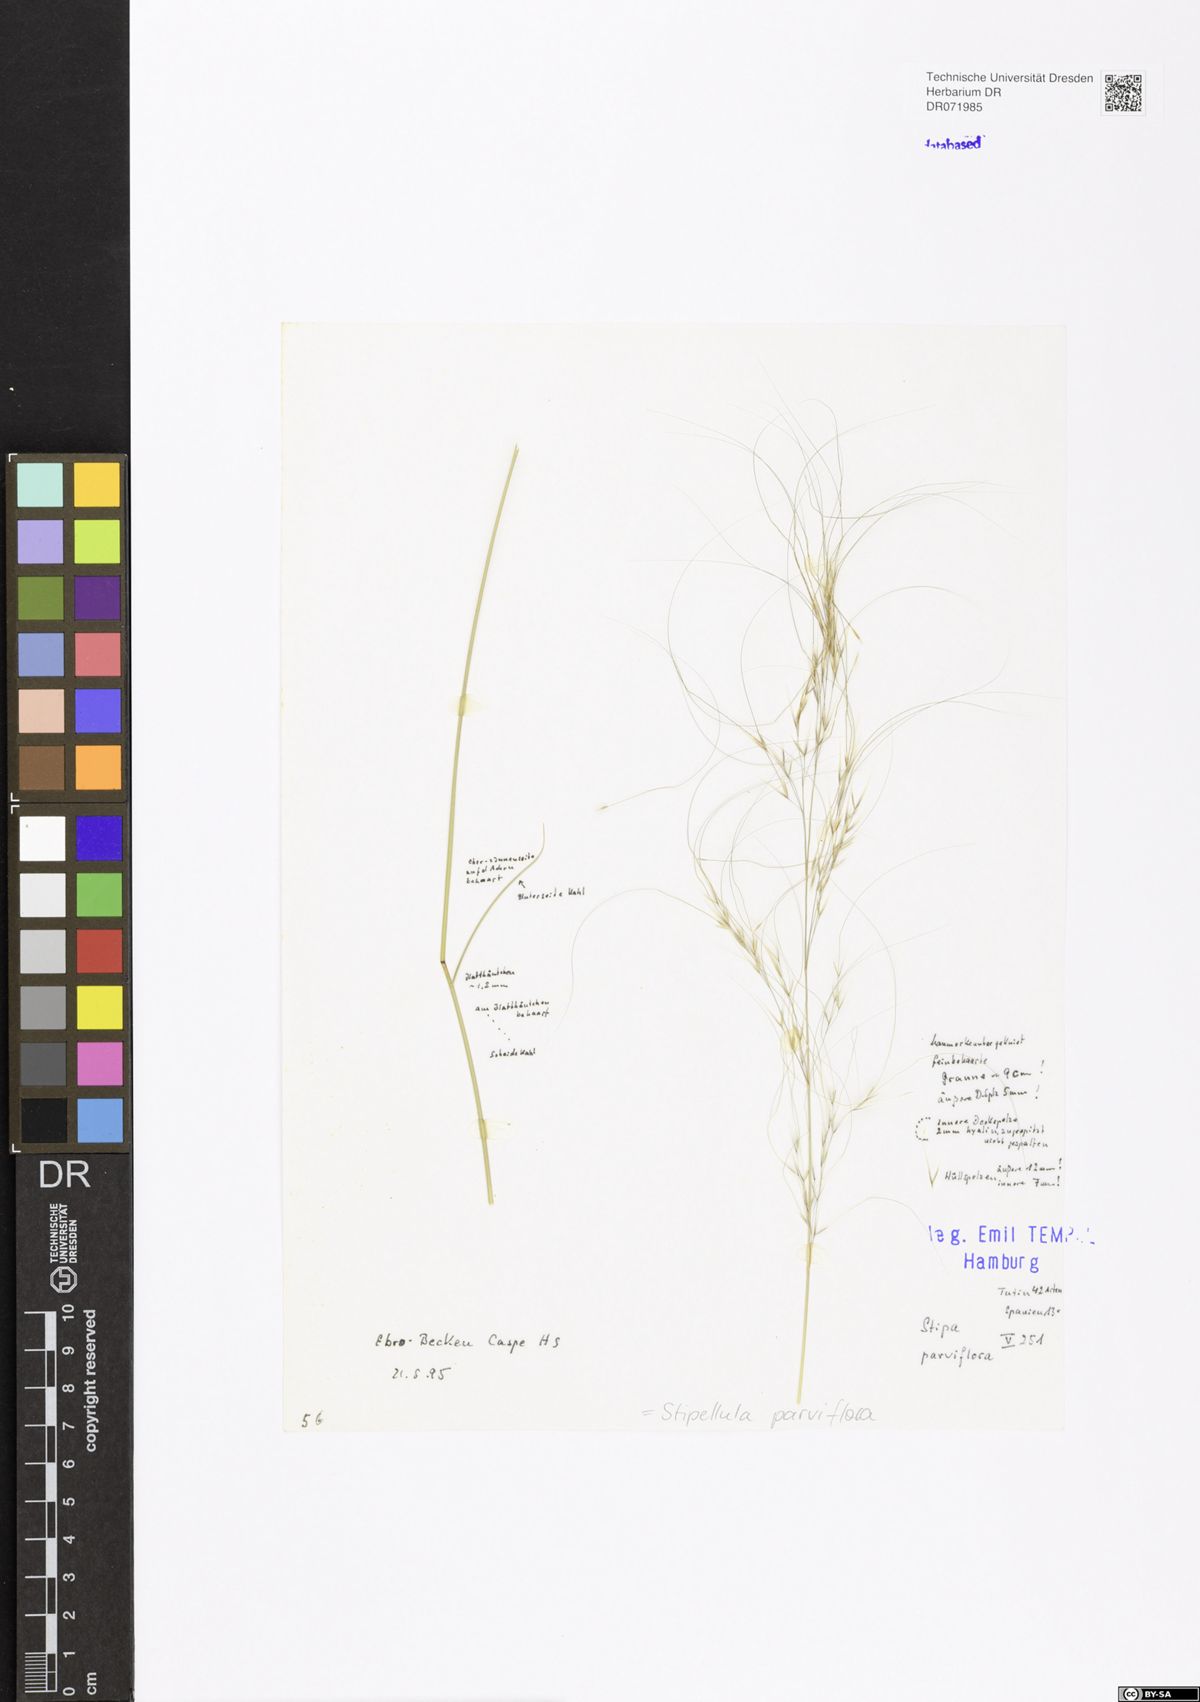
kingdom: Plantae
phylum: Tracheophyta
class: Liliopsida
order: Poales
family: Poaceae
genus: Achnatherum
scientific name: Achnatherum parviflorum
